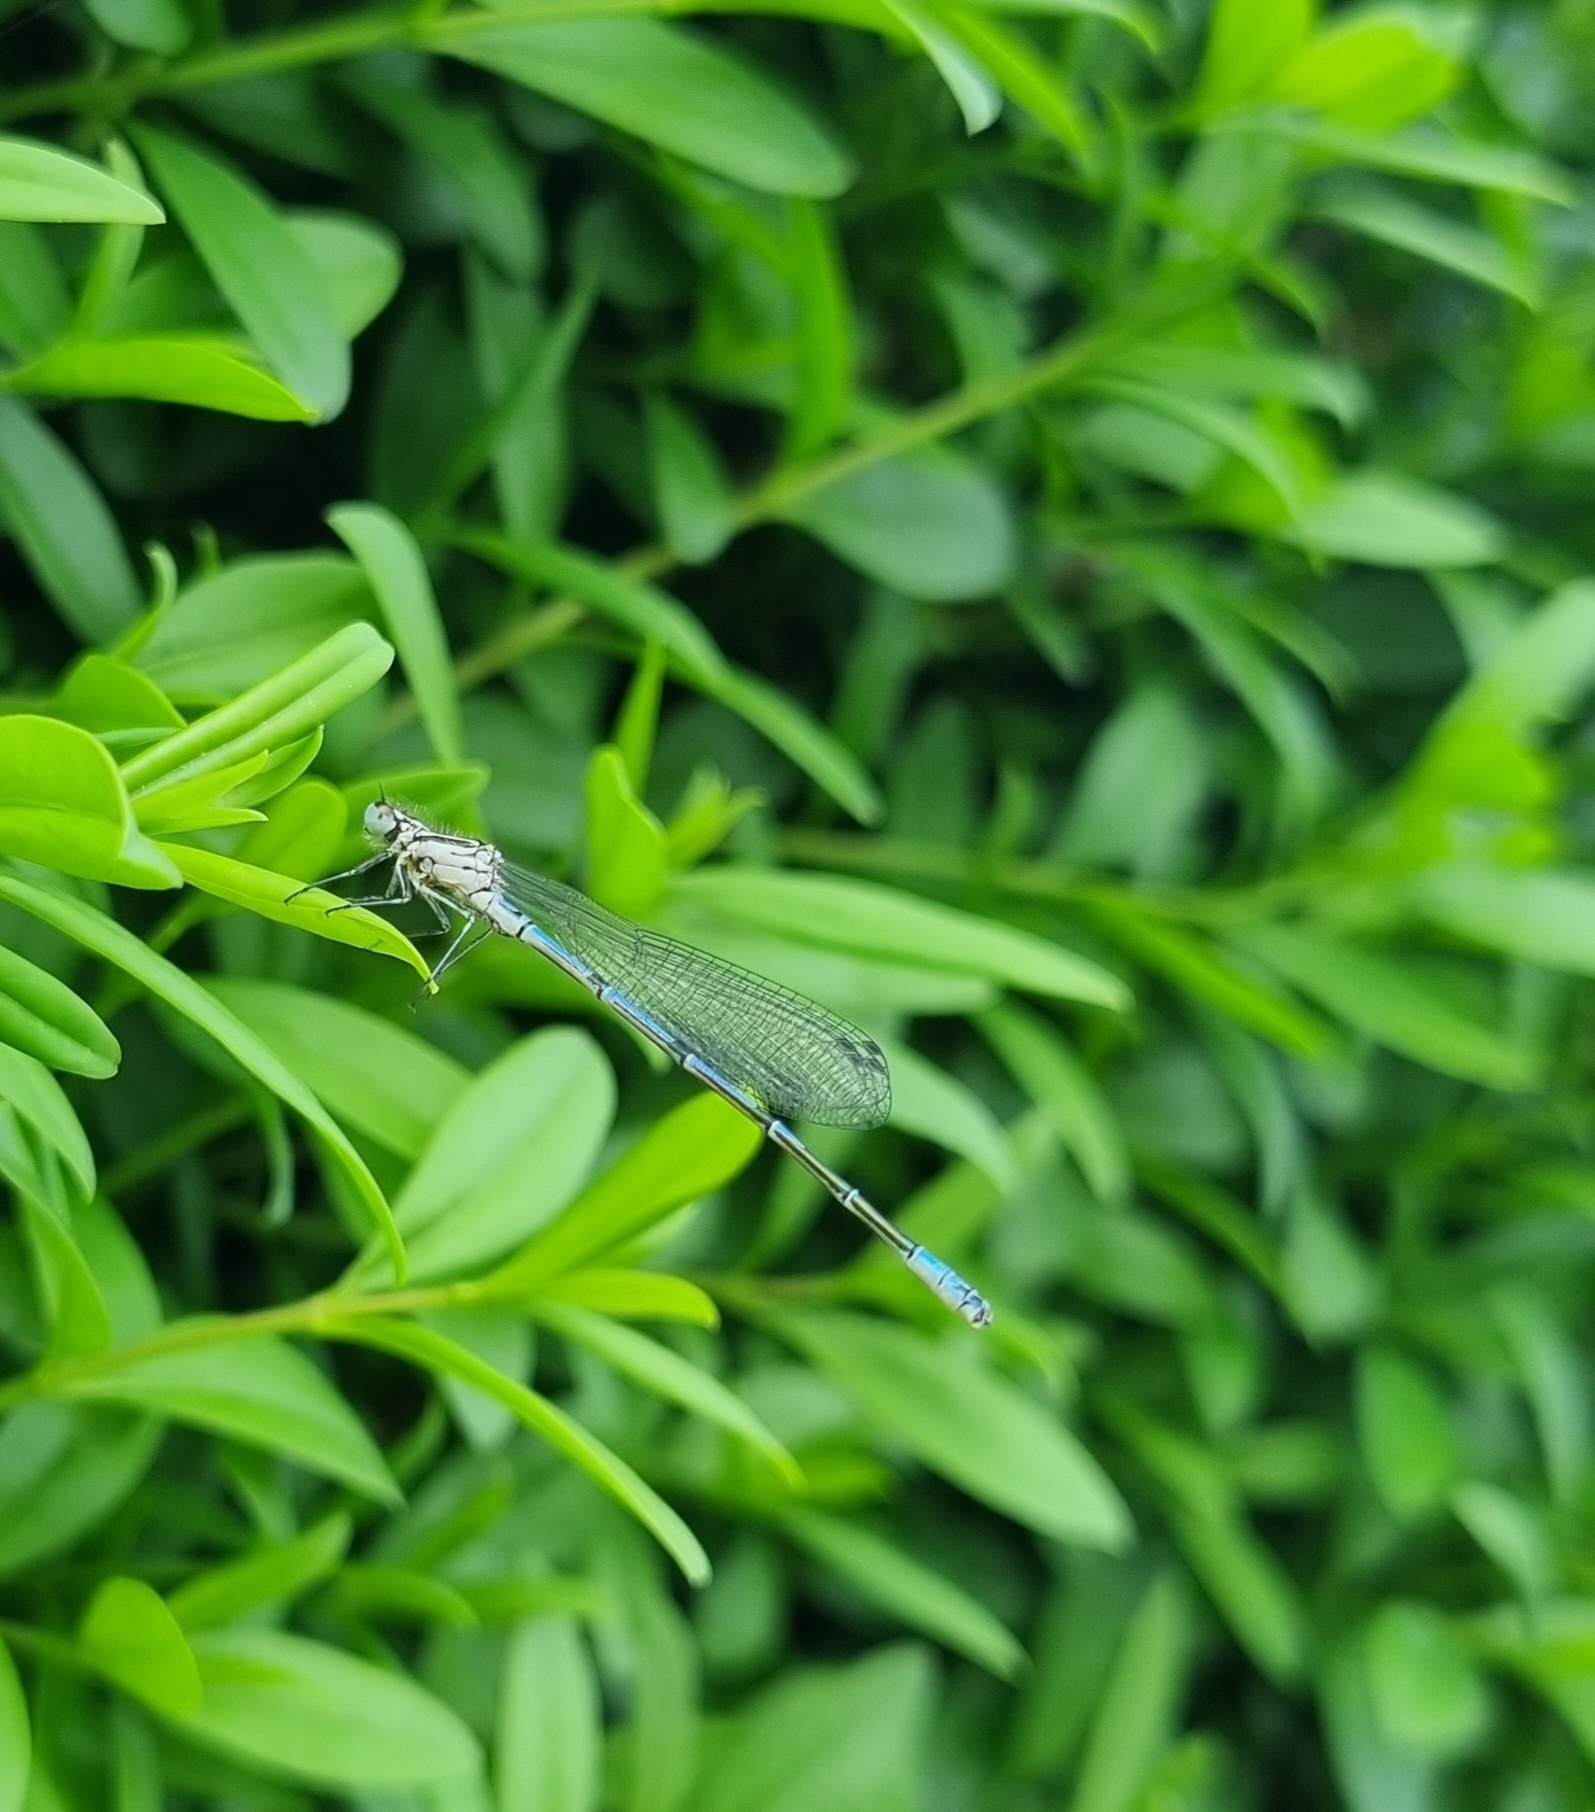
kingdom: Animalia
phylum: Arthropoda
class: Insecta
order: Odonata
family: Coenagrionidae
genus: Coenagrion
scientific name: Coenagrion puella
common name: Hestesko-vandnymfe
